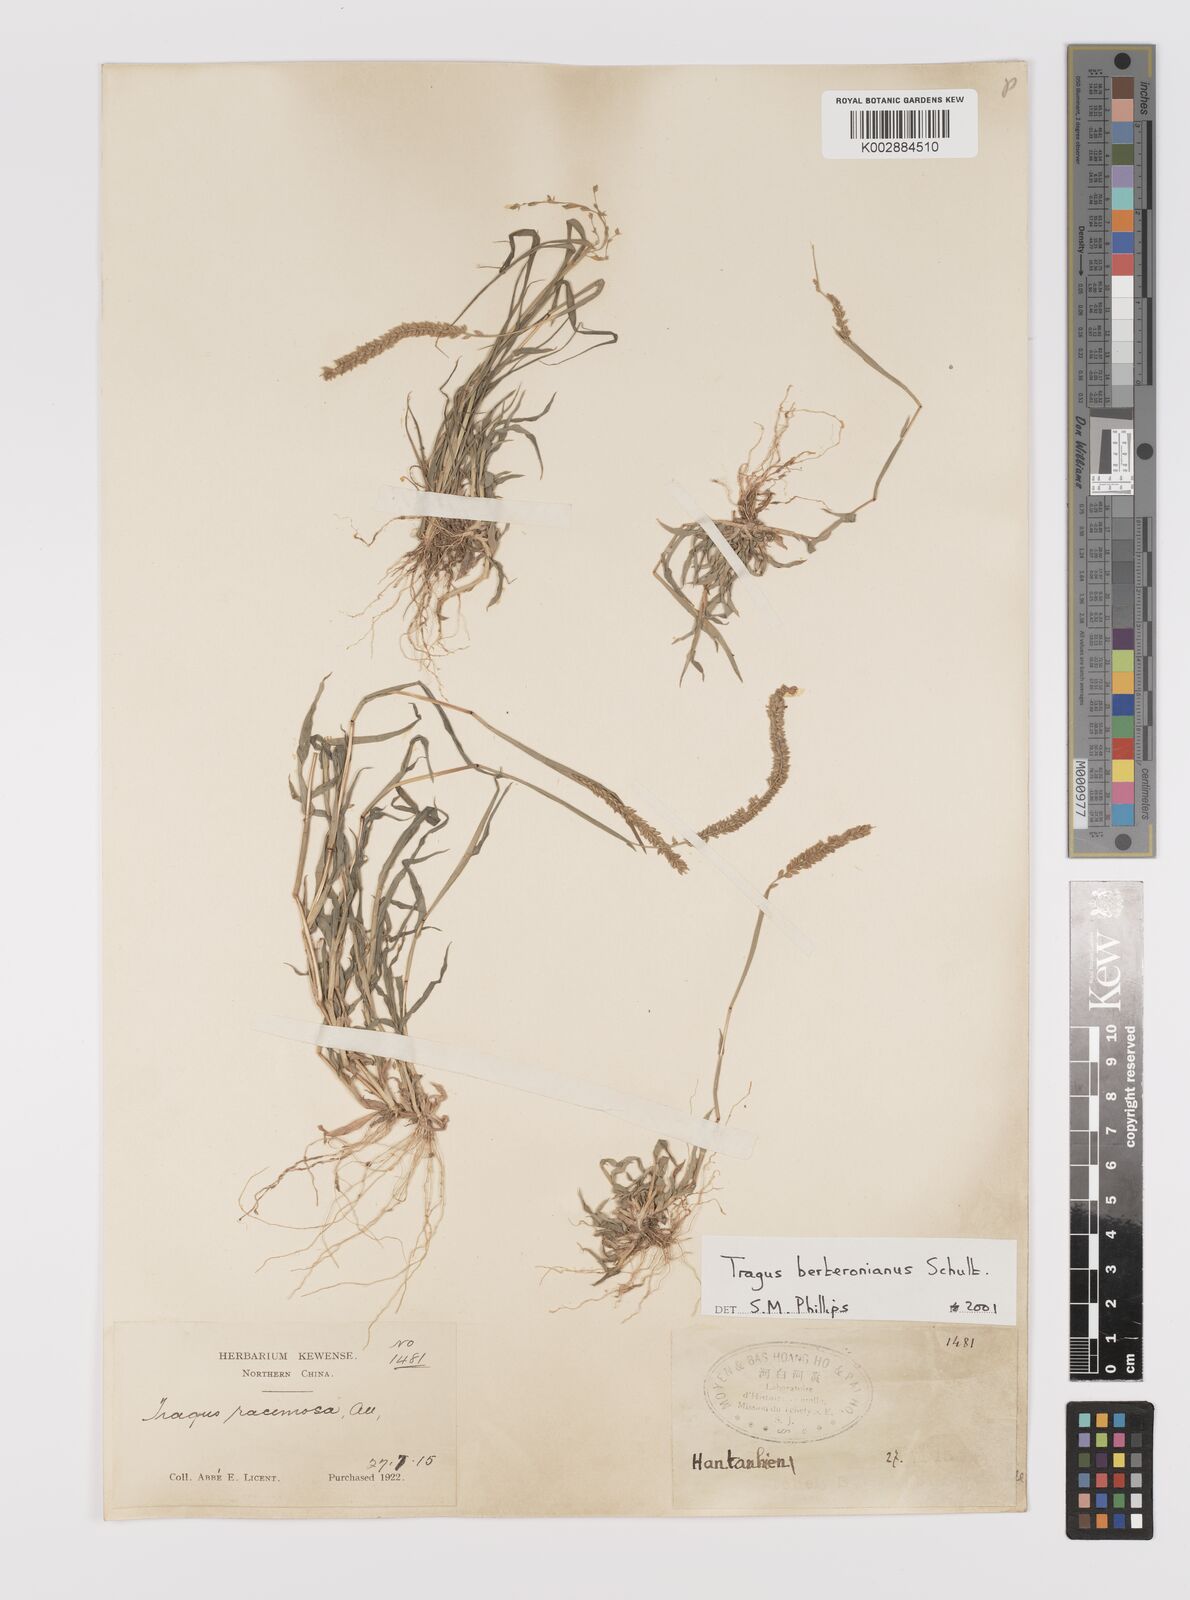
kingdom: Plantae
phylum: Tracheophyta
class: Liliopsida
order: Poales
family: Poaceae
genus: Tragus
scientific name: Tragus berteronianus
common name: African bur-grass
